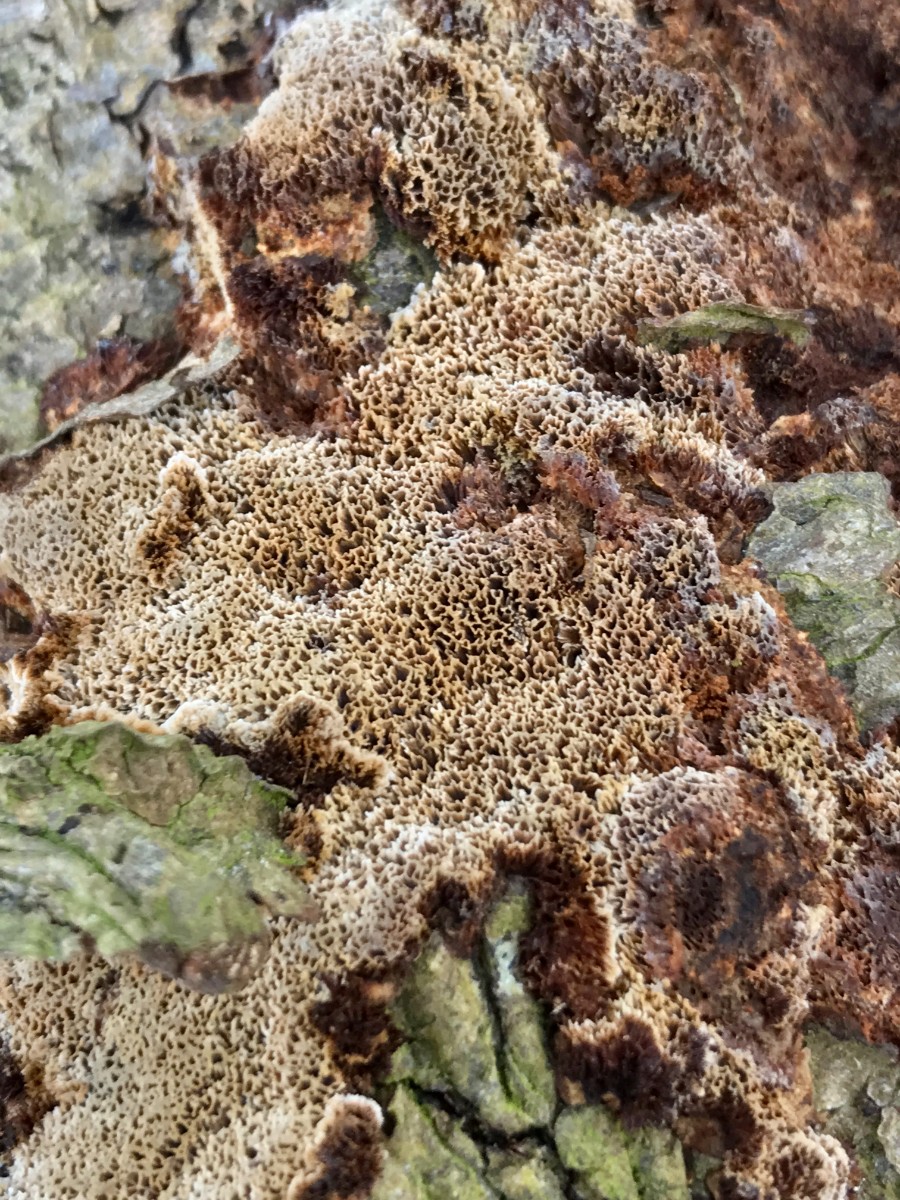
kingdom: Fungi
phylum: Basidiomycota
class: Agaricomycetes
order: Hymenochaetales
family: Hymenochaetaceae
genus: Mensularia
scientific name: Mensularia nodulosa
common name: bøge-spejlporesvamp
